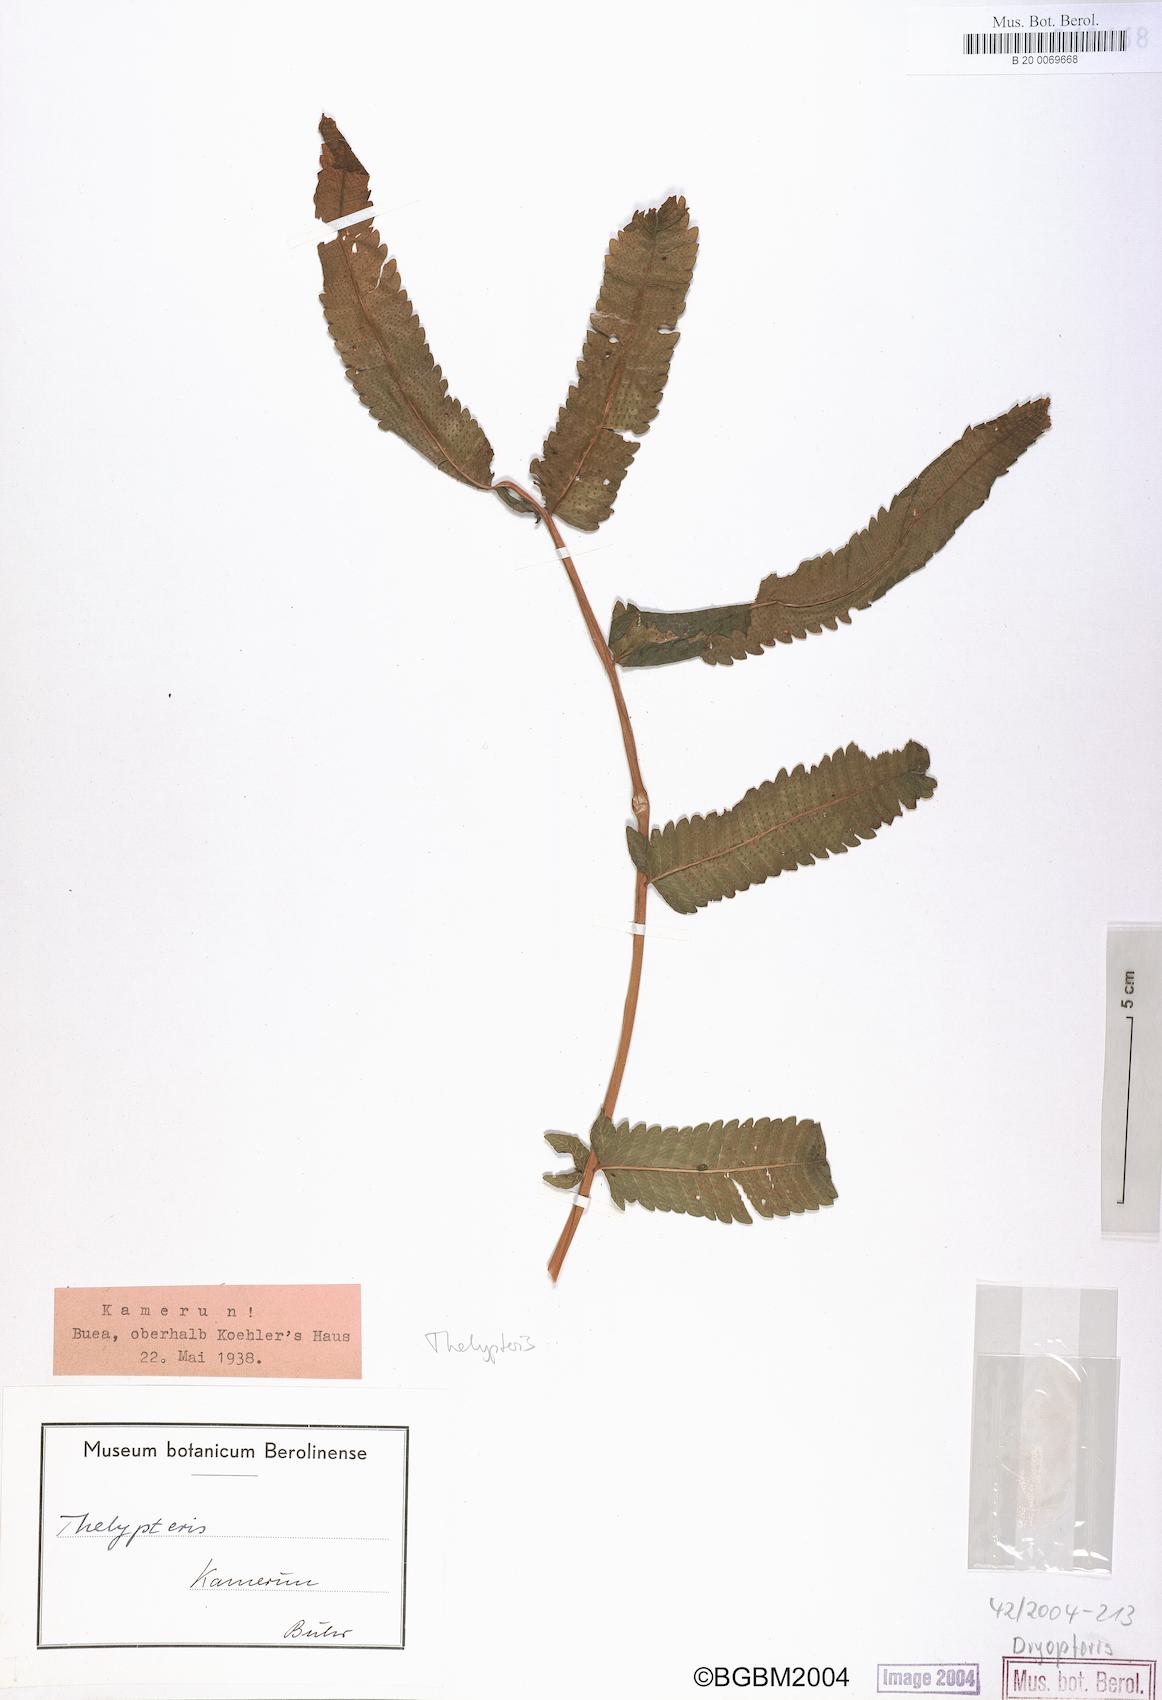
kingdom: Plantae
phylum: Tracheophyta
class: Polypodiopsida
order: Polypodiales
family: Thelypteridaceae
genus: Thelypteris
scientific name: Thelypteris
